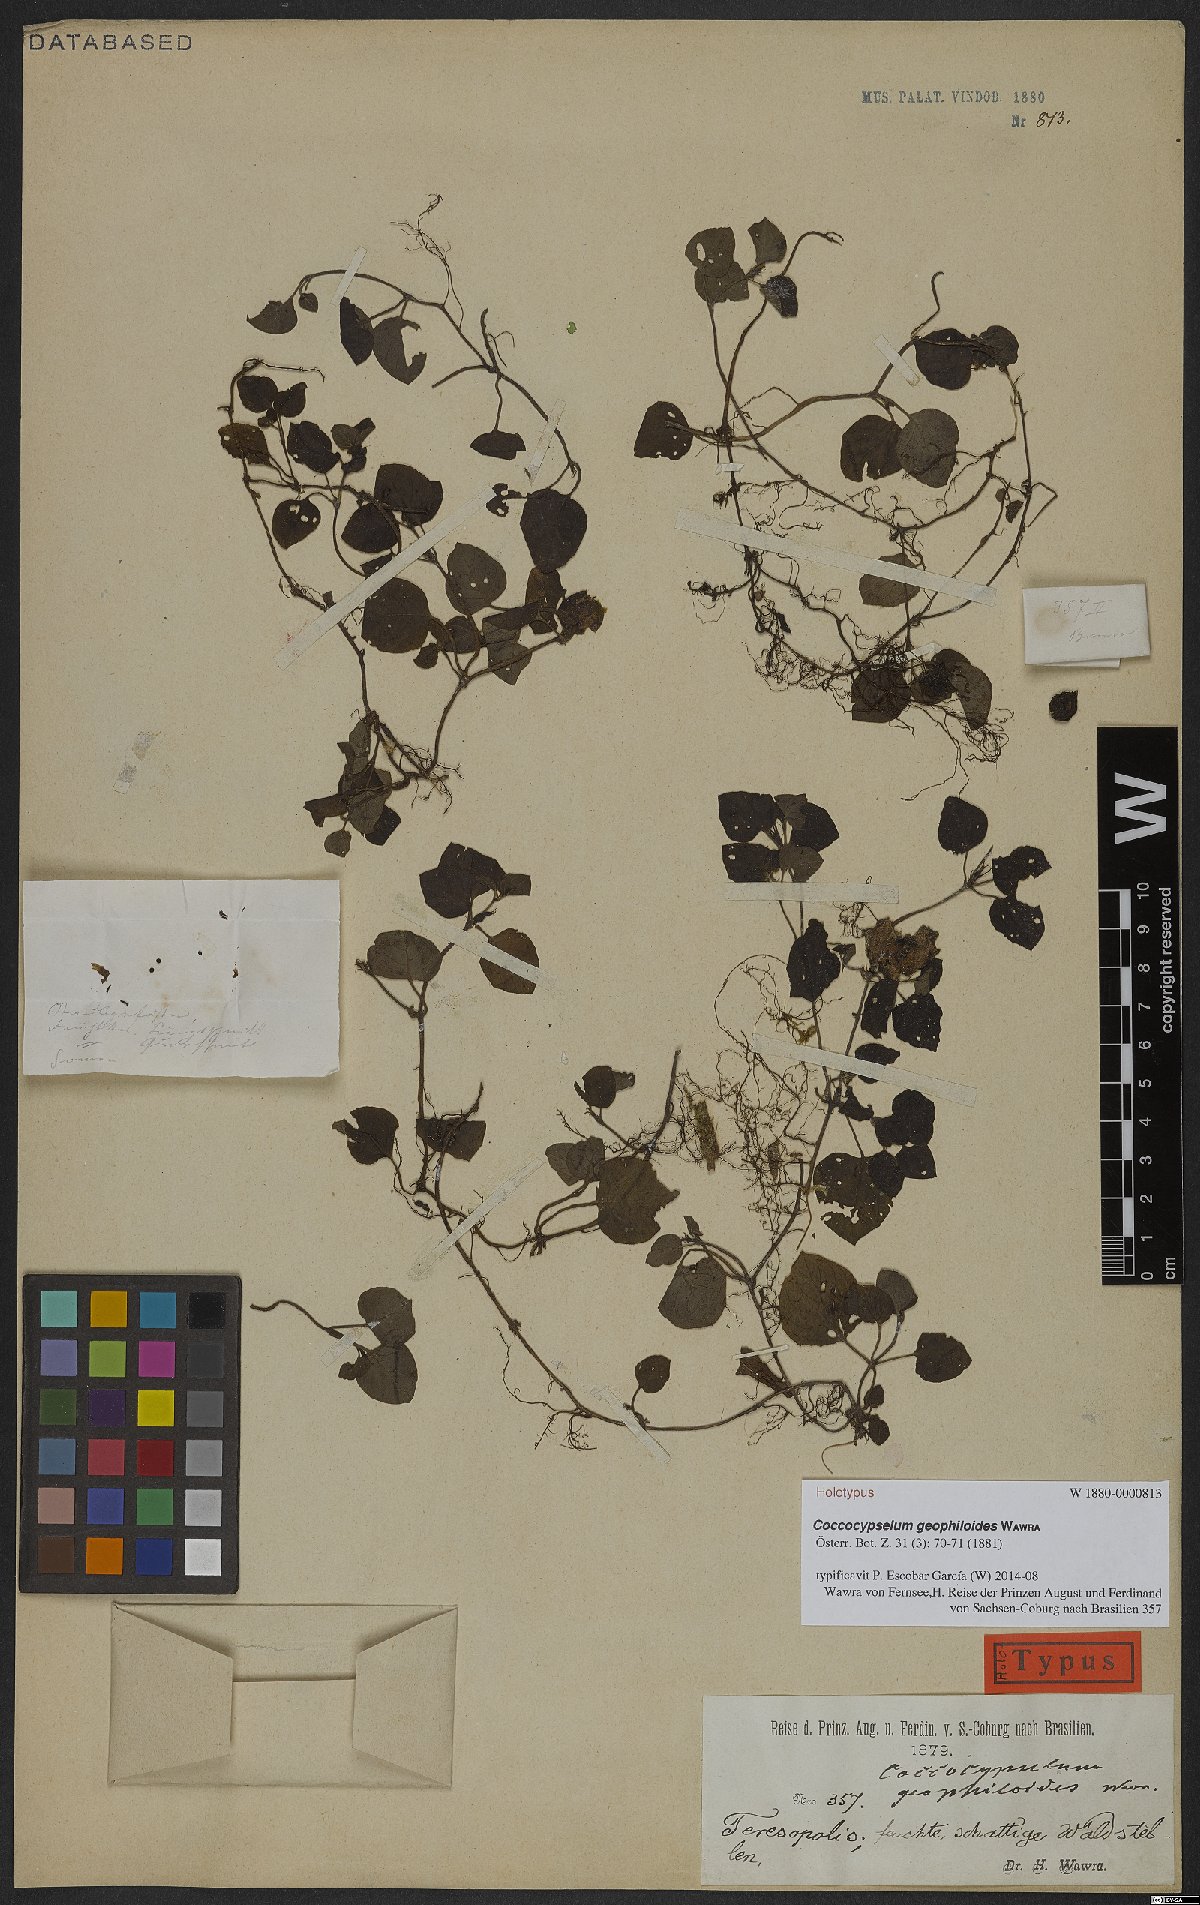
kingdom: Plantae
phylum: Tracheophyta
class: Magnoliopsida
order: Gentianales
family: Rubiaceae
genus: Coccocypselum
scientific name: Coccocypselum geophiloides
